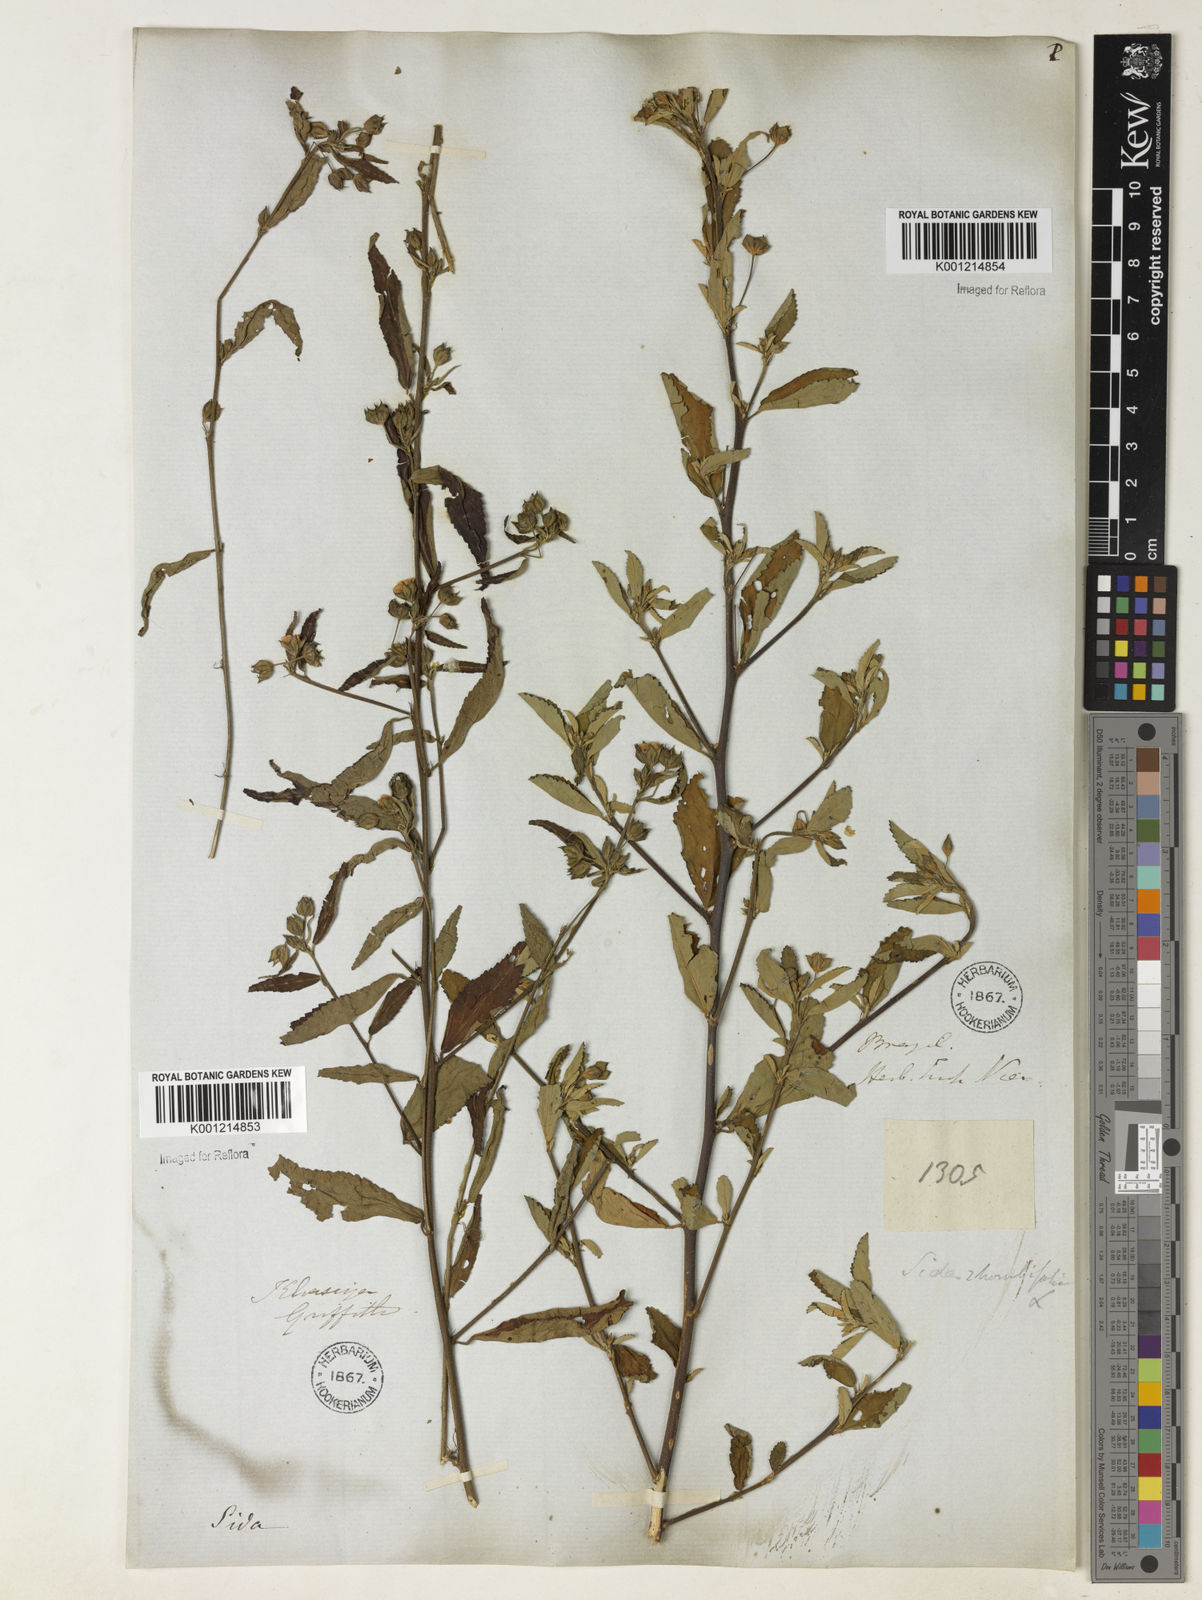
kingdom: Plantae
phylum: Tracheophyta
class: Magnoliopsida
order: Malvales
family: Malvaceae
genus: Sida
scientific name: Sida rhombifolia
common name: Queensland-hemp
